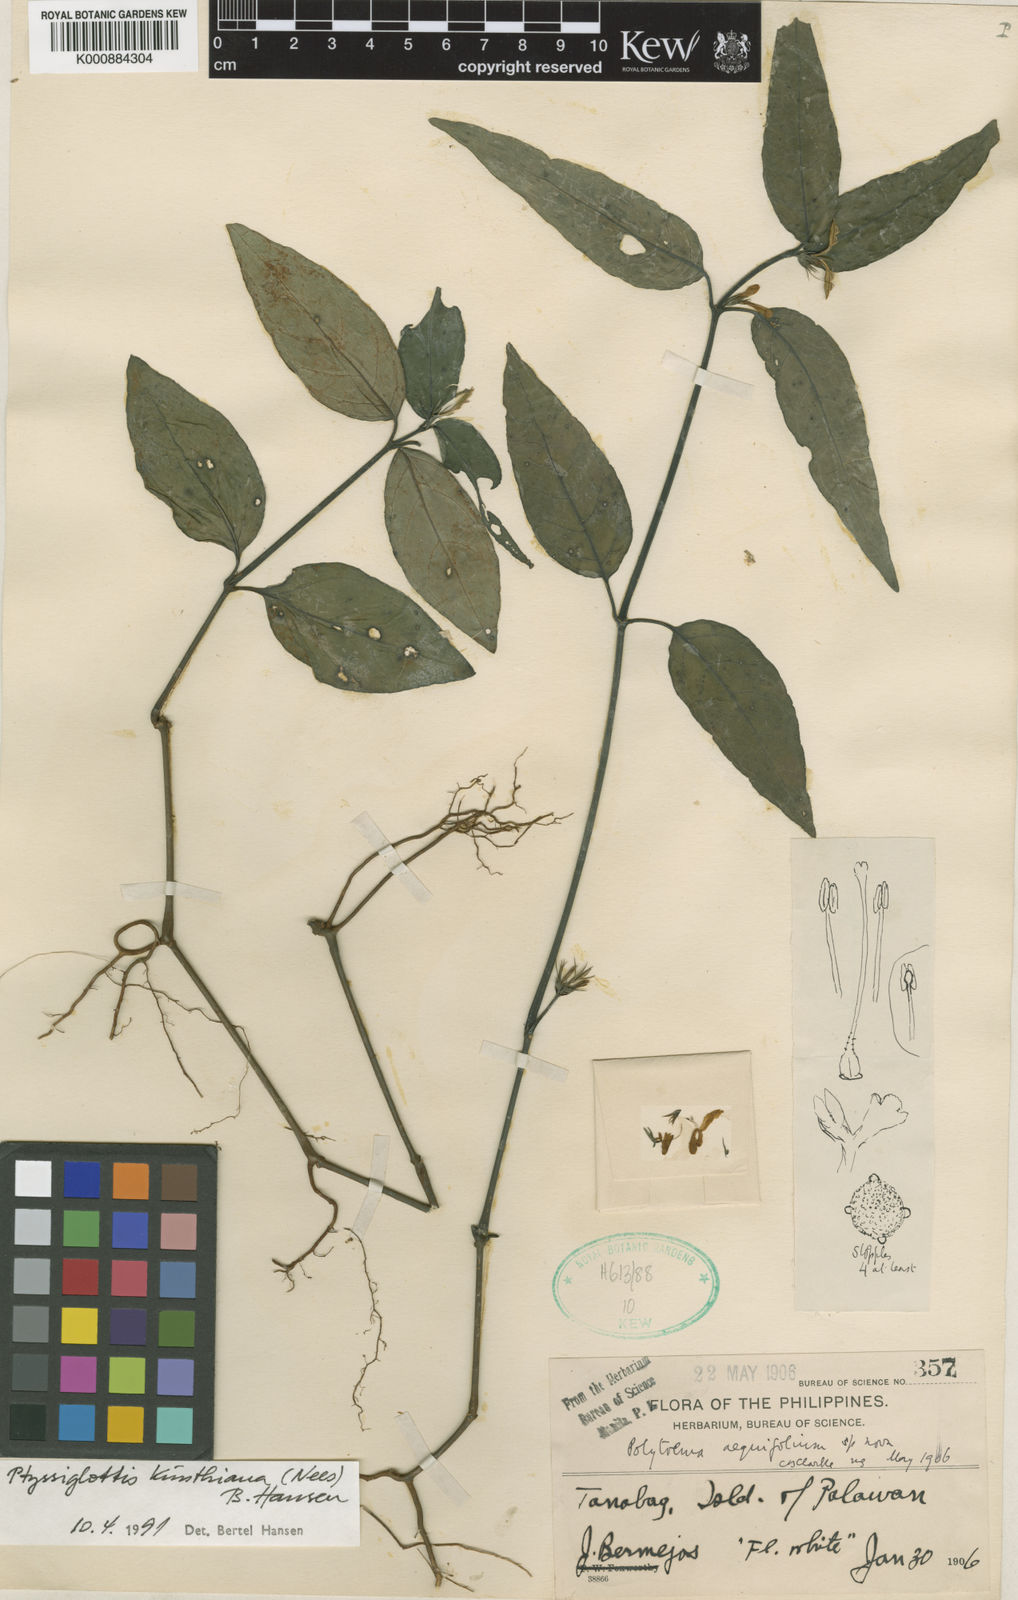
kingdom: Plantae
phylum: Tracheophyta
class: Magnoliopsida
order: Lamiales
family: Acanthaceae
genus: Ptyssiglottis
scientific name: Ptyssiglottis kunthiana
